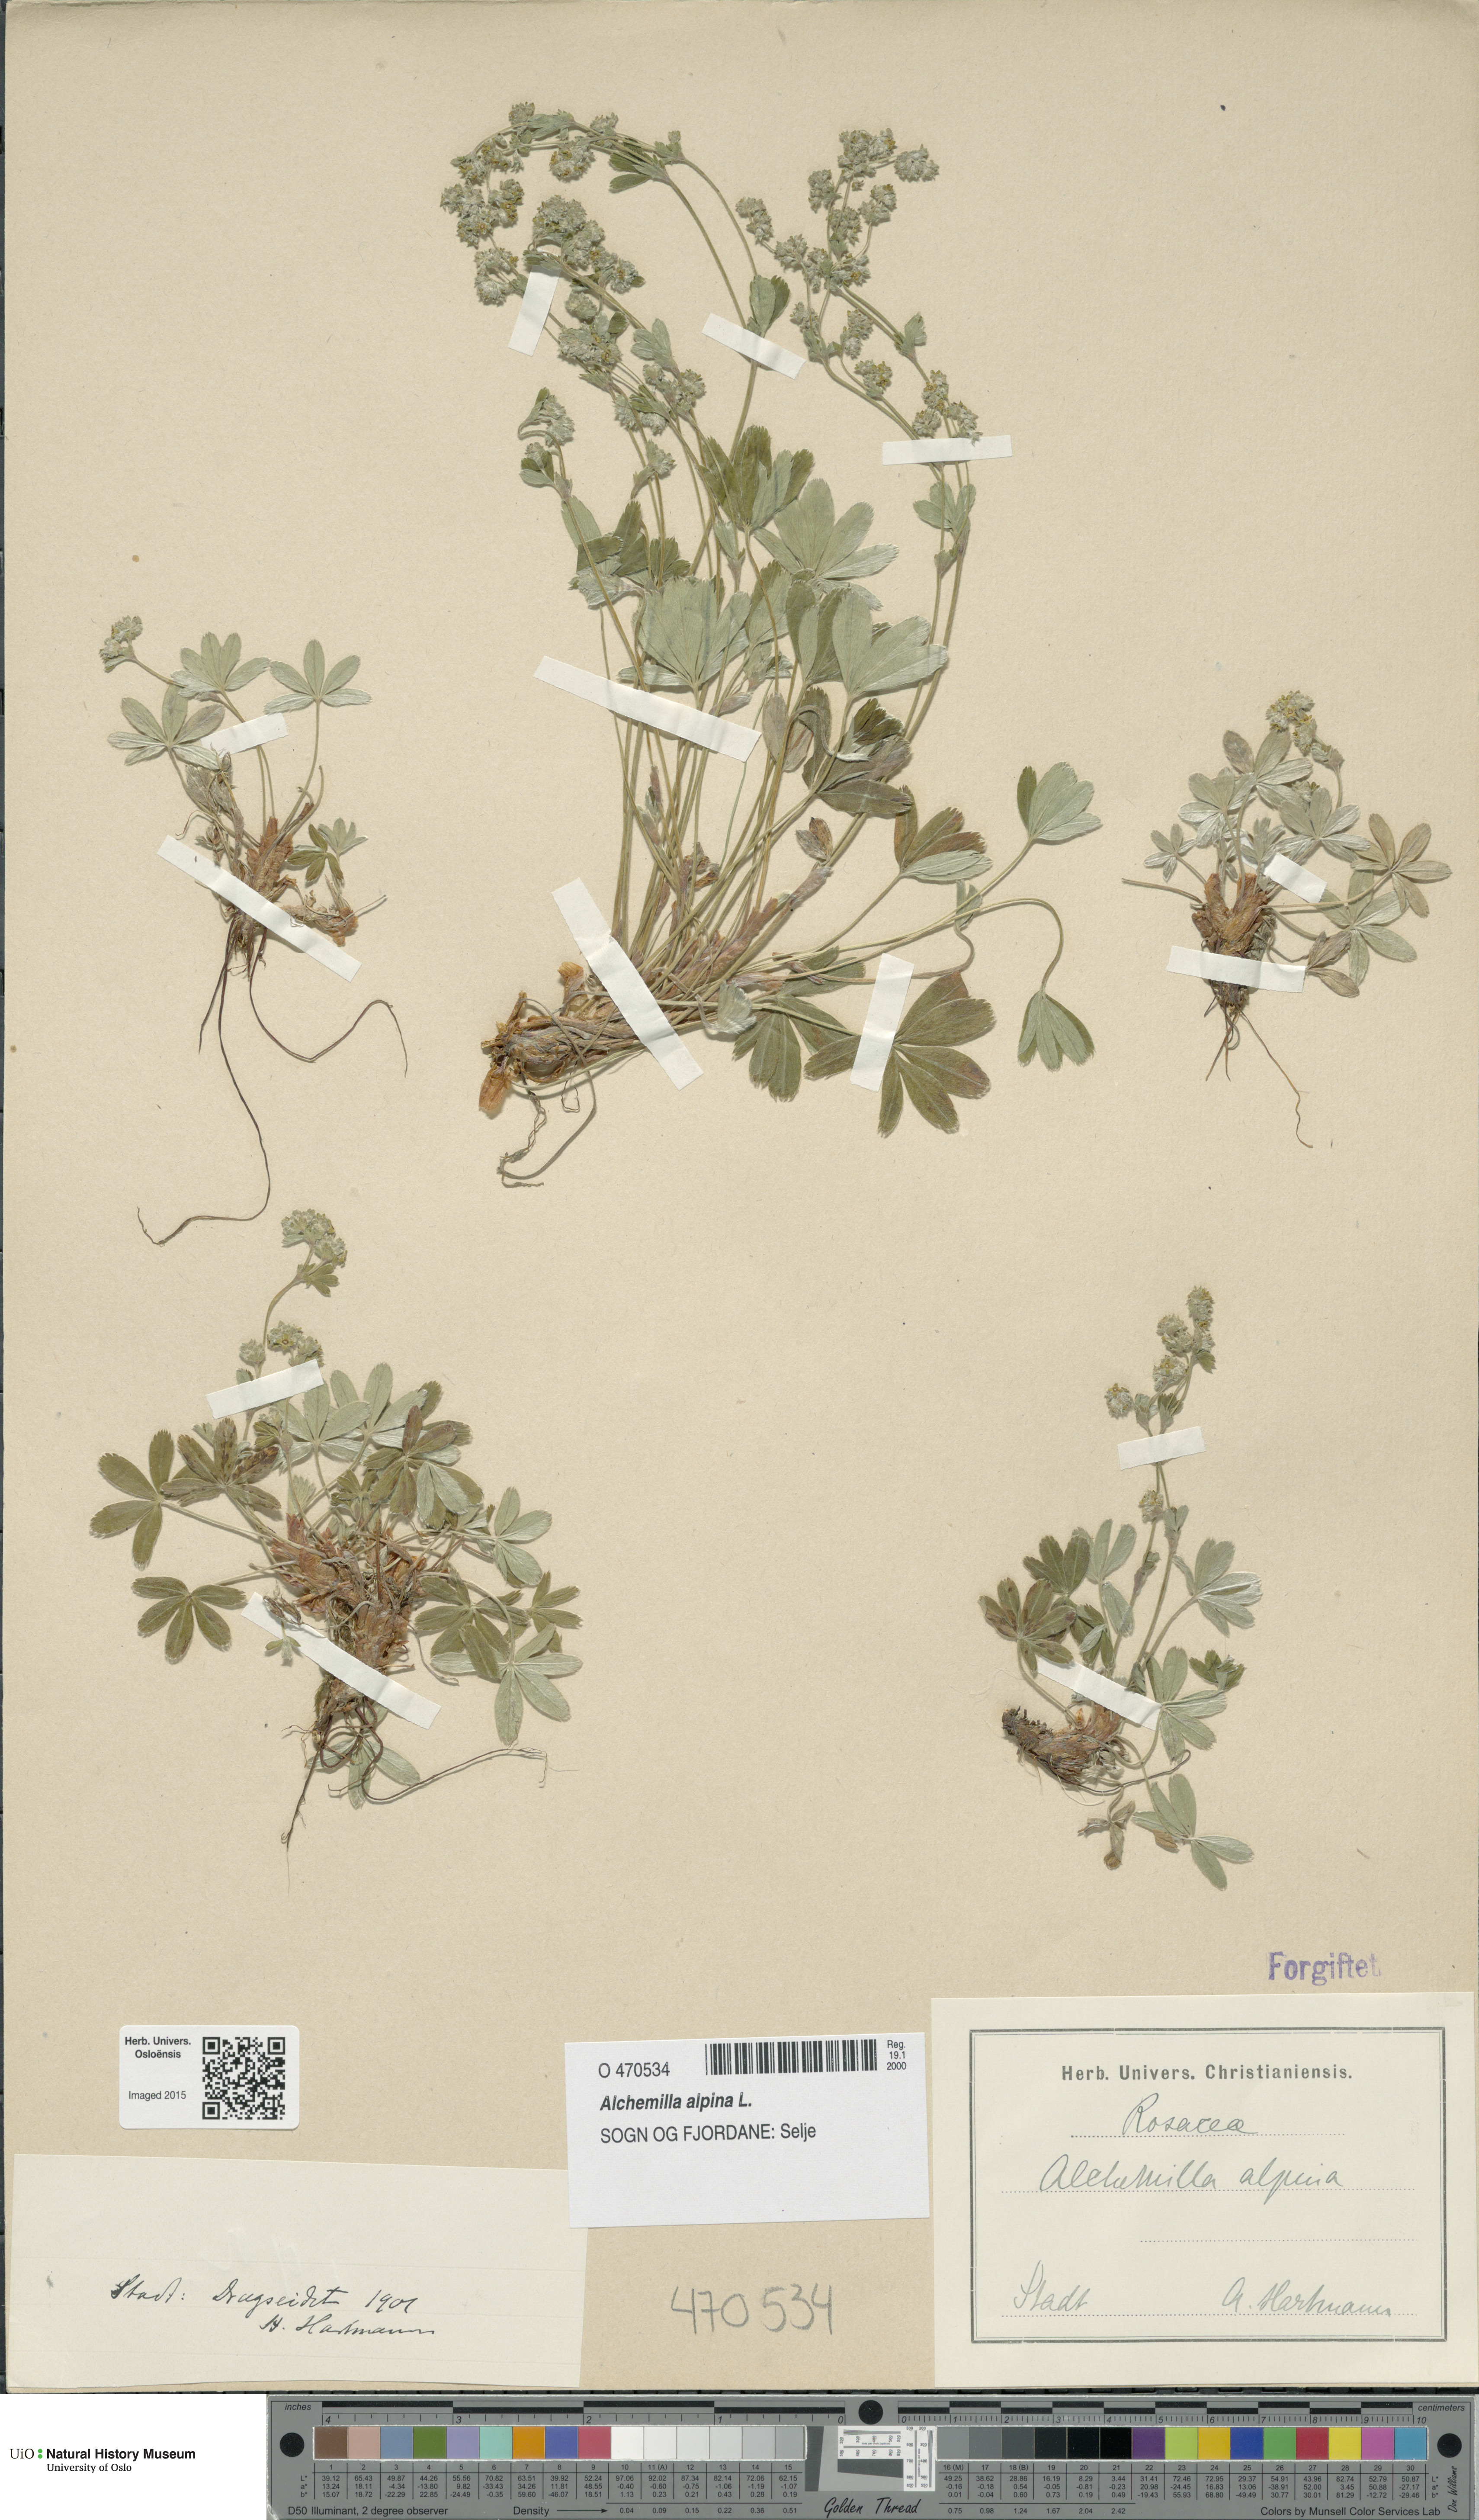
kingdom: Plantae
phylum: Tracheophyta
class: Magnoliopsida
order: Rosales
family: Rosaceae
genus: Alchemilla
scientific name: Alchemilla alpina
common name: Alpine lady's-mantle
